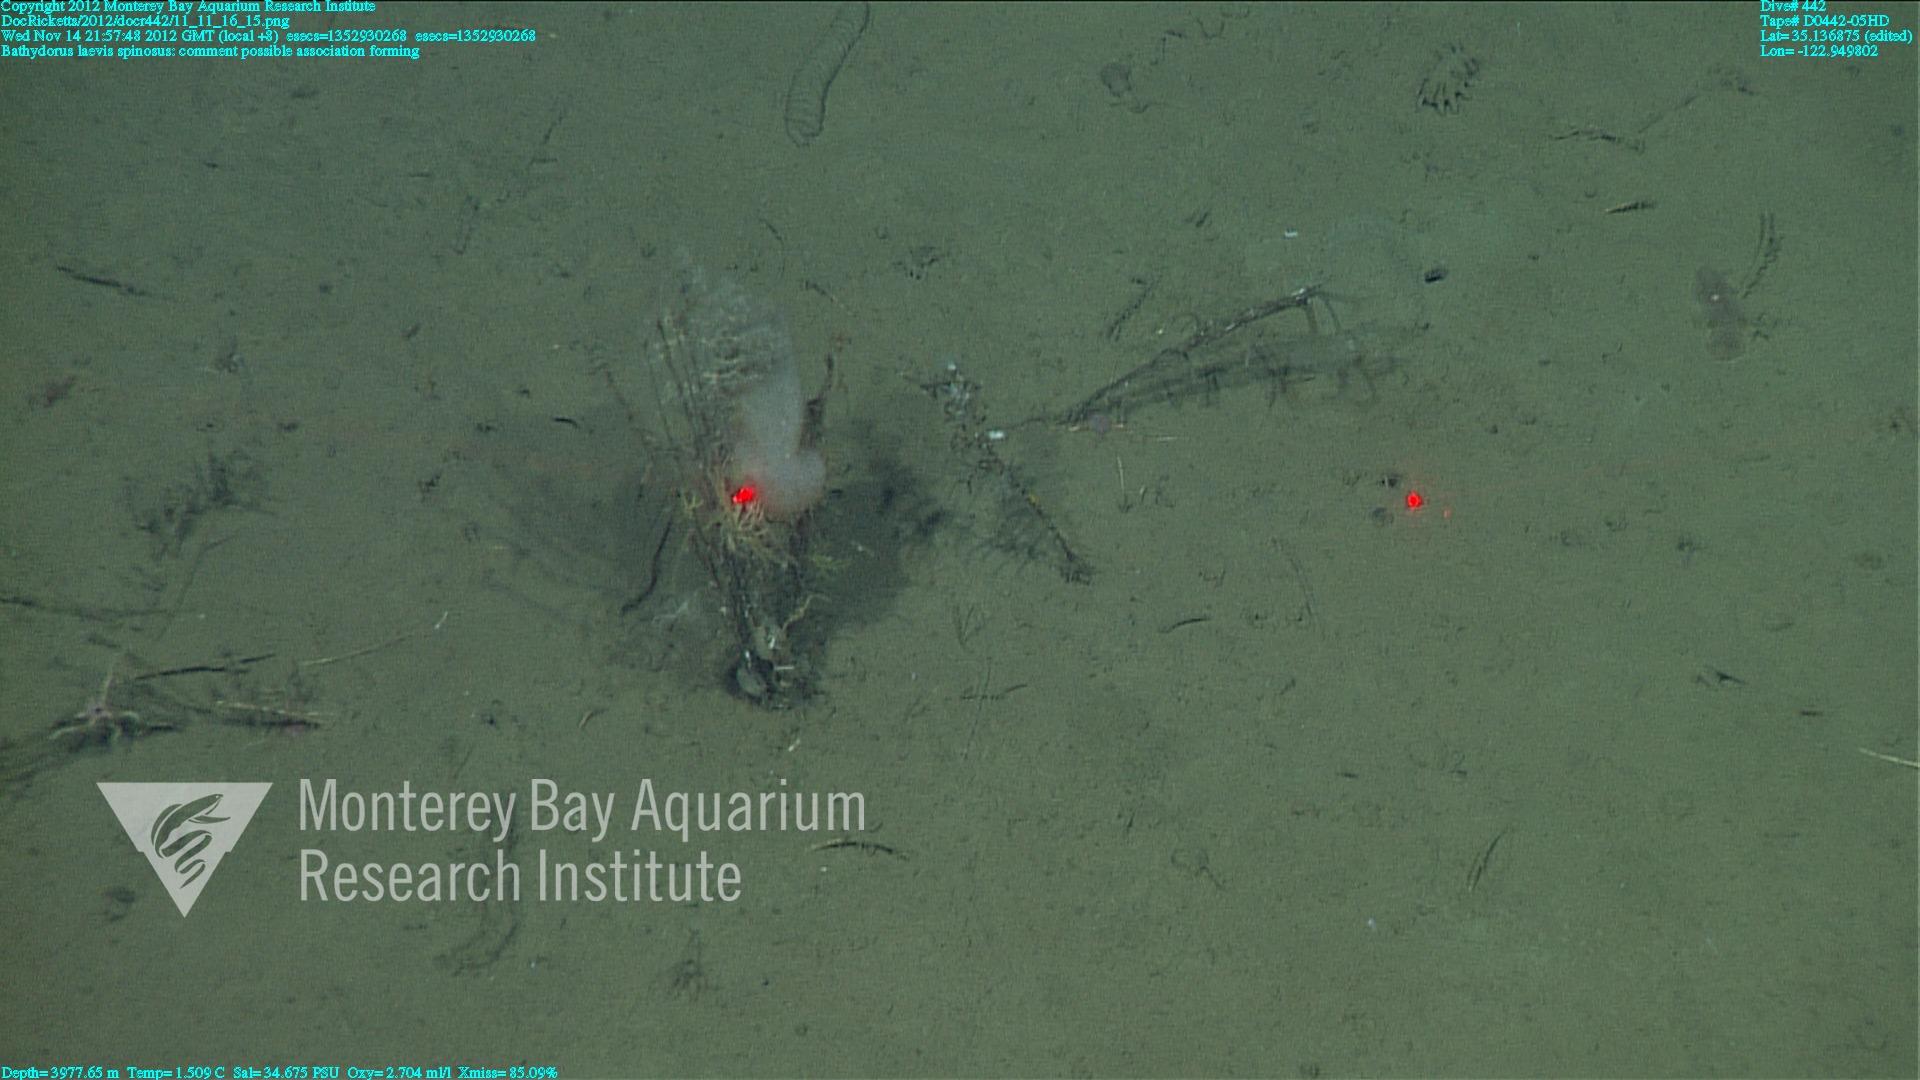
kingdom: Animalia
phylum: Porifera
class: Hexactinellida
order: Lyssacinosida
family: Rossellidae
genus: Bathydorus
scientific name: Bathydorus spinosus
